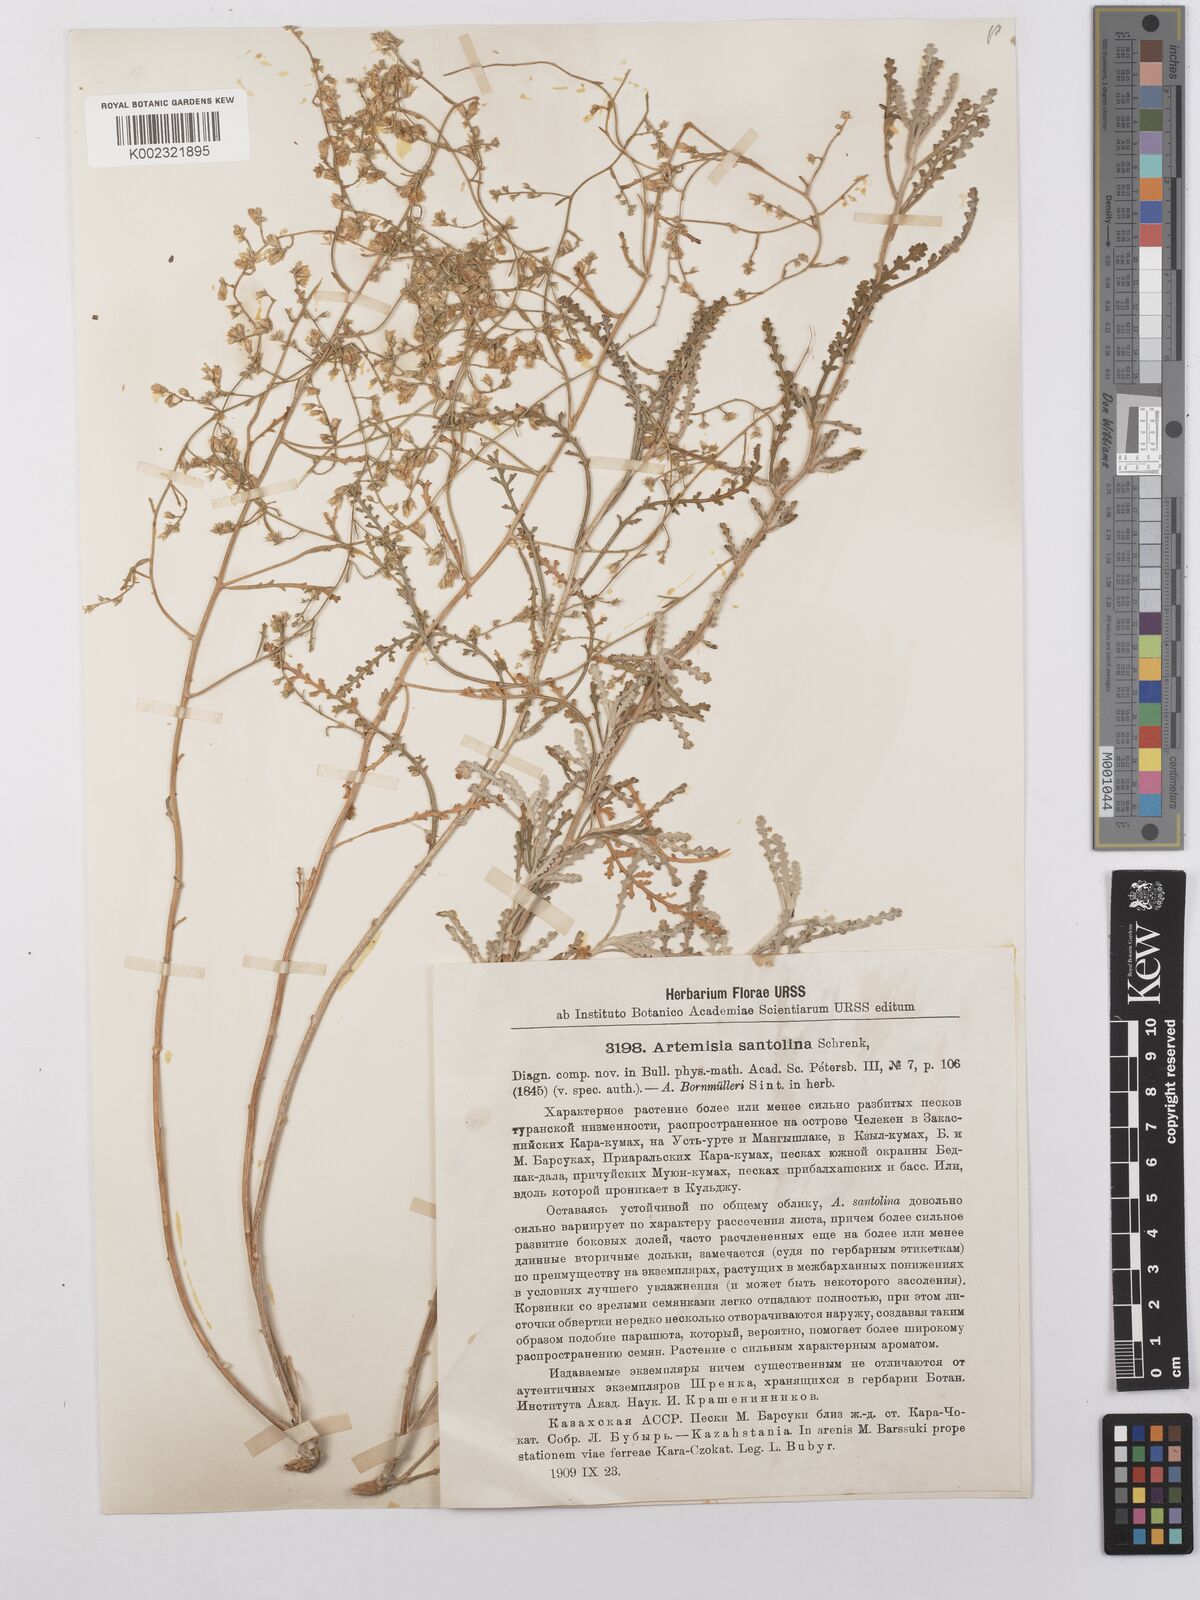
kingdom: Plantae
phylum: Tracheophyta
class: Magnoliopsida
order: Asterales
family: Asteraceae
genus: Artemisia
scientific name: Artemisia santolina
